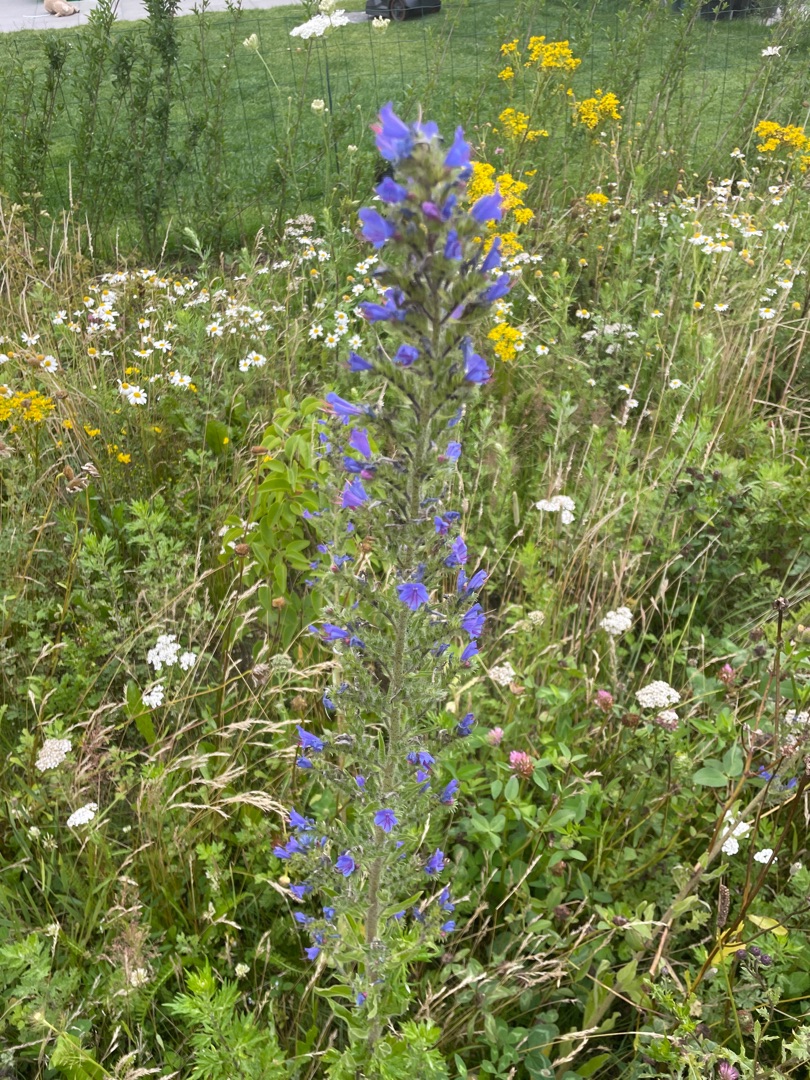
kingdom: Plantae
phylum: Tracheophyta
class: Magnoliopsida
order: Boraginales
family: Boraginaceae
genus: Echium
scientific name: Echium vulgare
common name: Slangehoved
